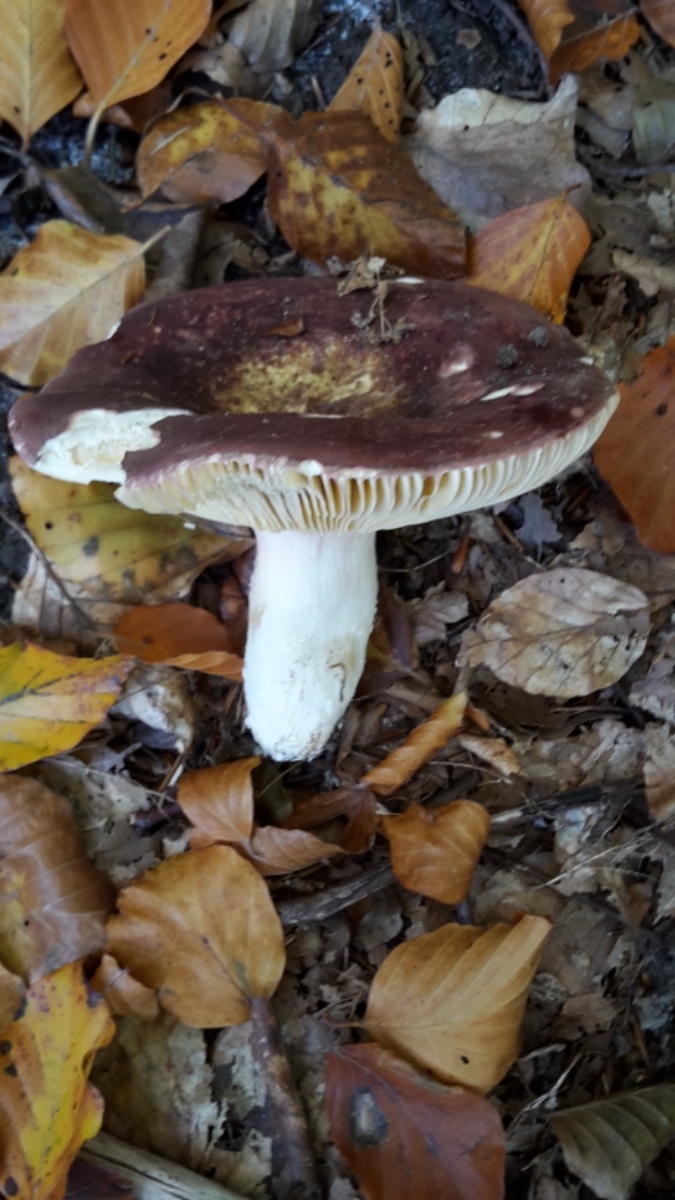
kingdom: Fungi
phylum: Basidiomycota
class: Agaricomycetes
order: Russulales
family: Russulaceae
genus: Russula
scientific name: Russula olivacea
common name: stor skørhat
